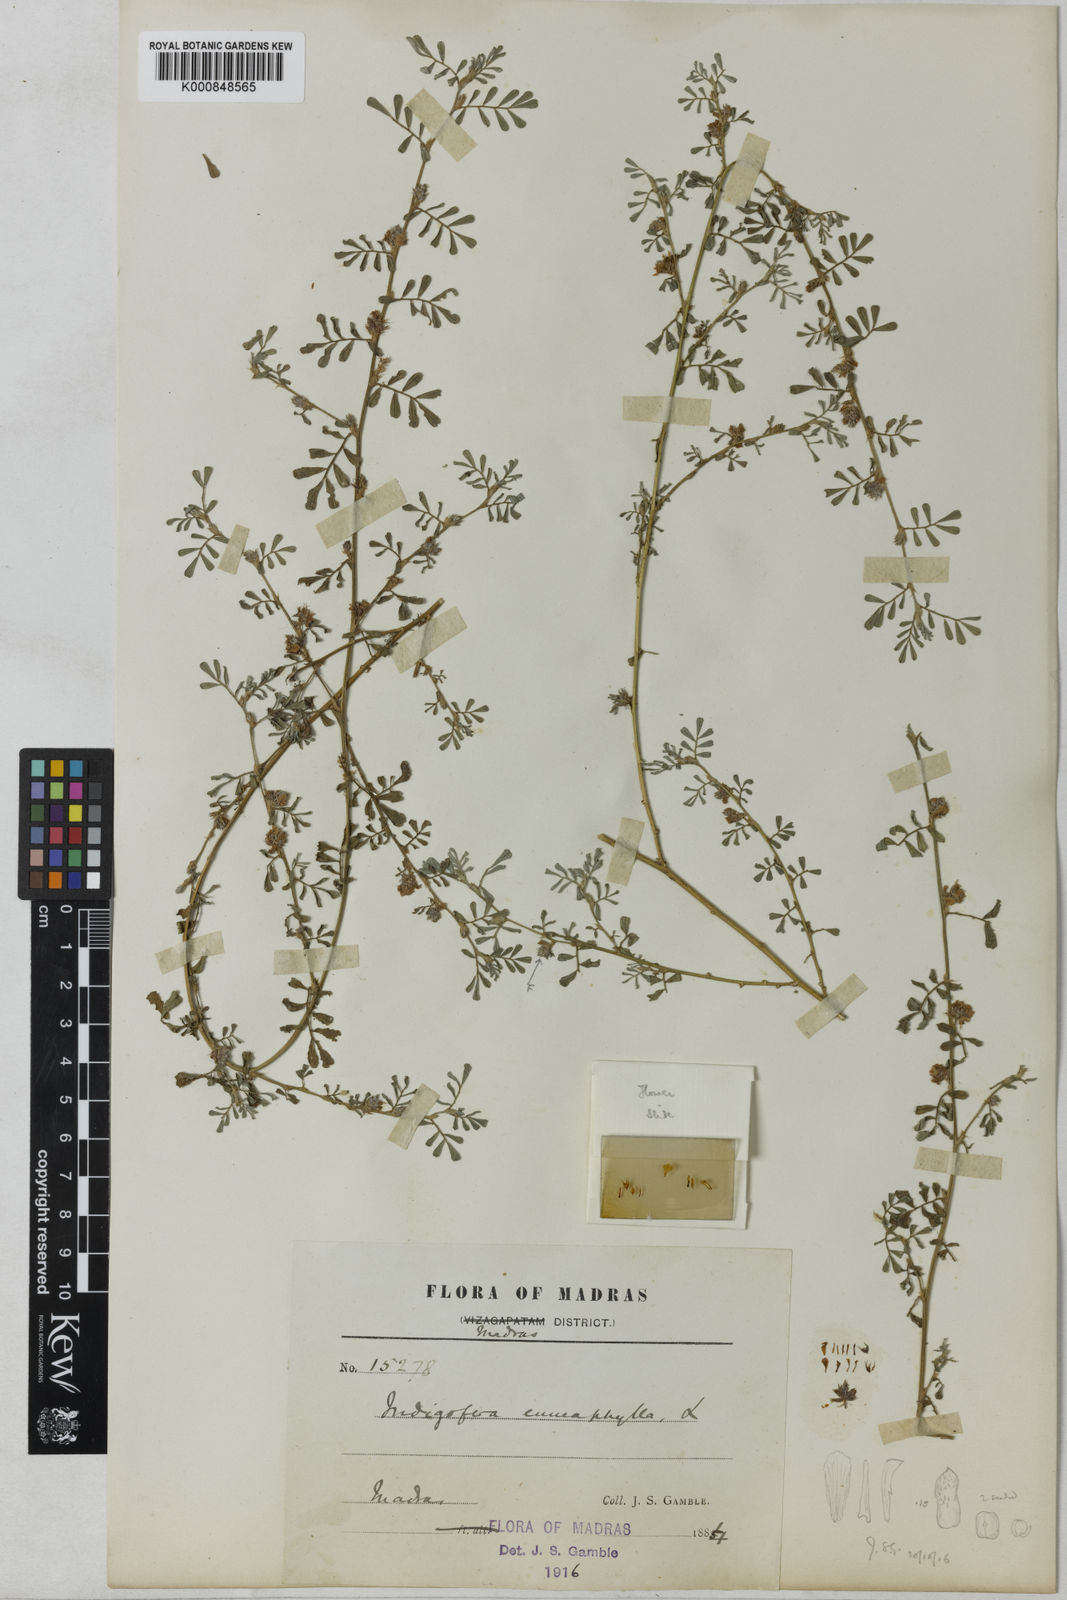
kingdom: Plantae
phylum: Tracheophyta
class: Magnoliopsida
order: Fabales
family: Fabaceae
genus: Indigofera
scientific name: Indigofera linnaei
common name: Nine-leaf indigo
